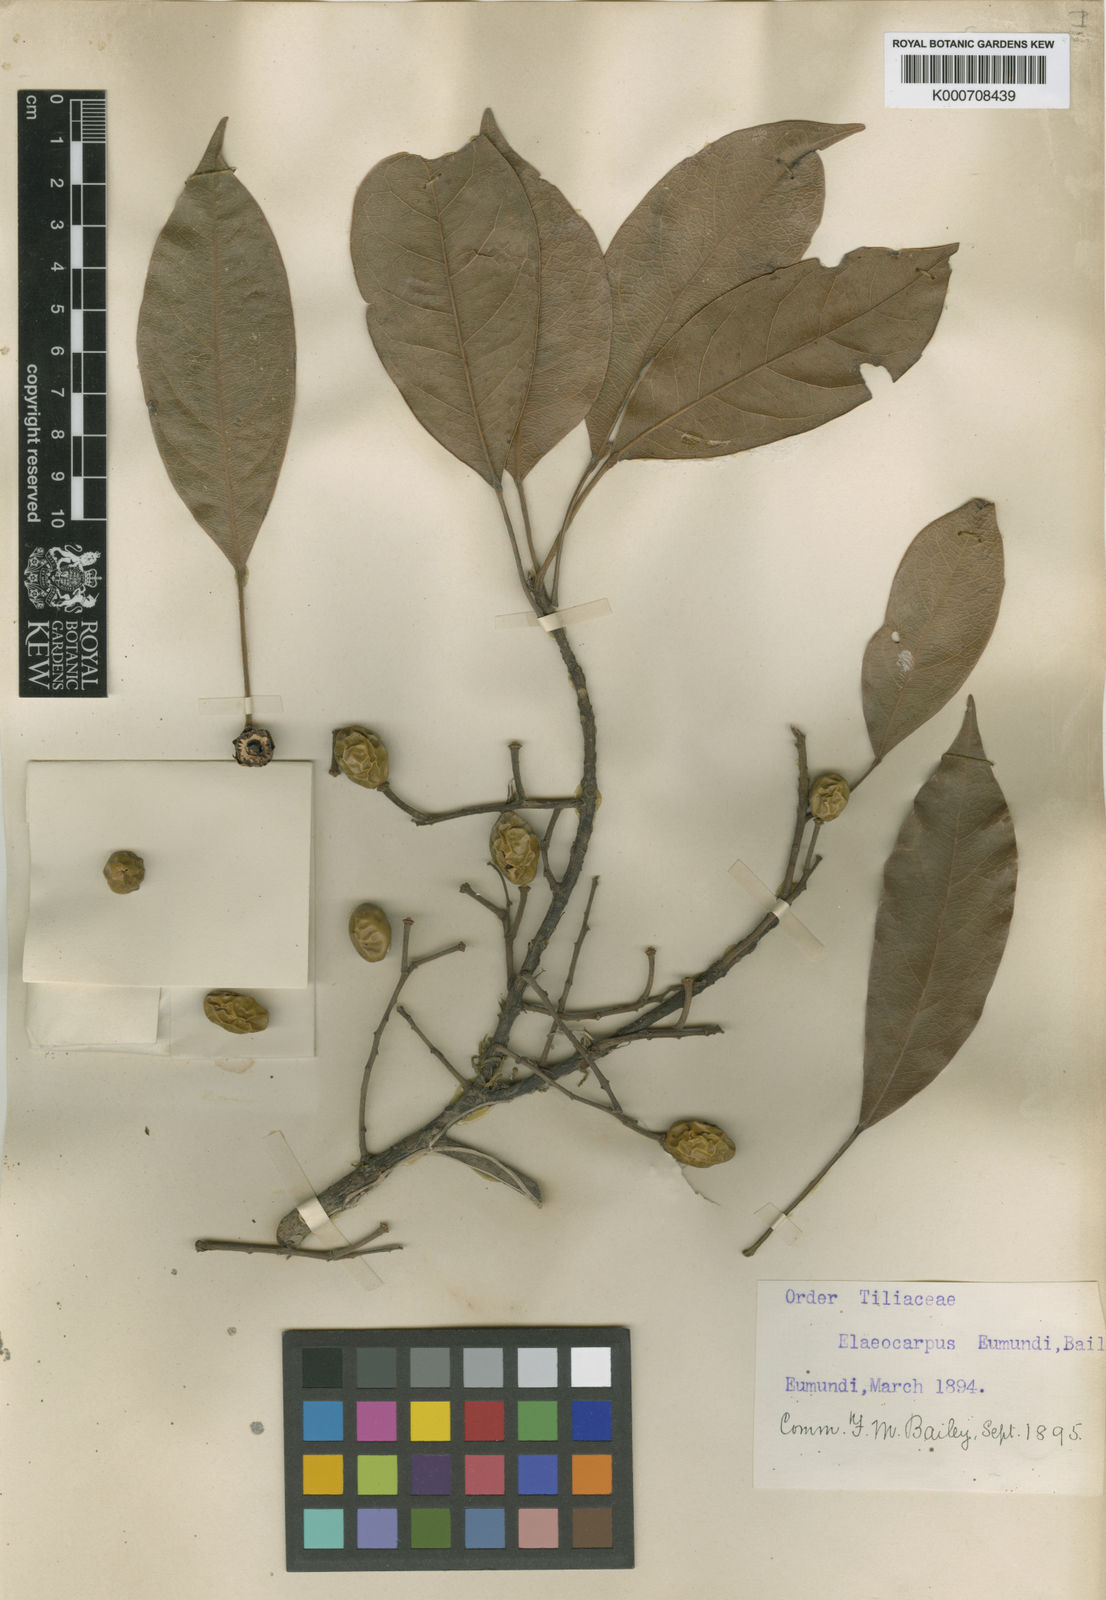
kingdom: Plantae
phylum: Tracheophyta
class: Magnoliopsida
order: Oxalidales
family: Elaeocarpaceae
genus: Elaeocarpus
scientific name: Elaeocarpus eumundi
